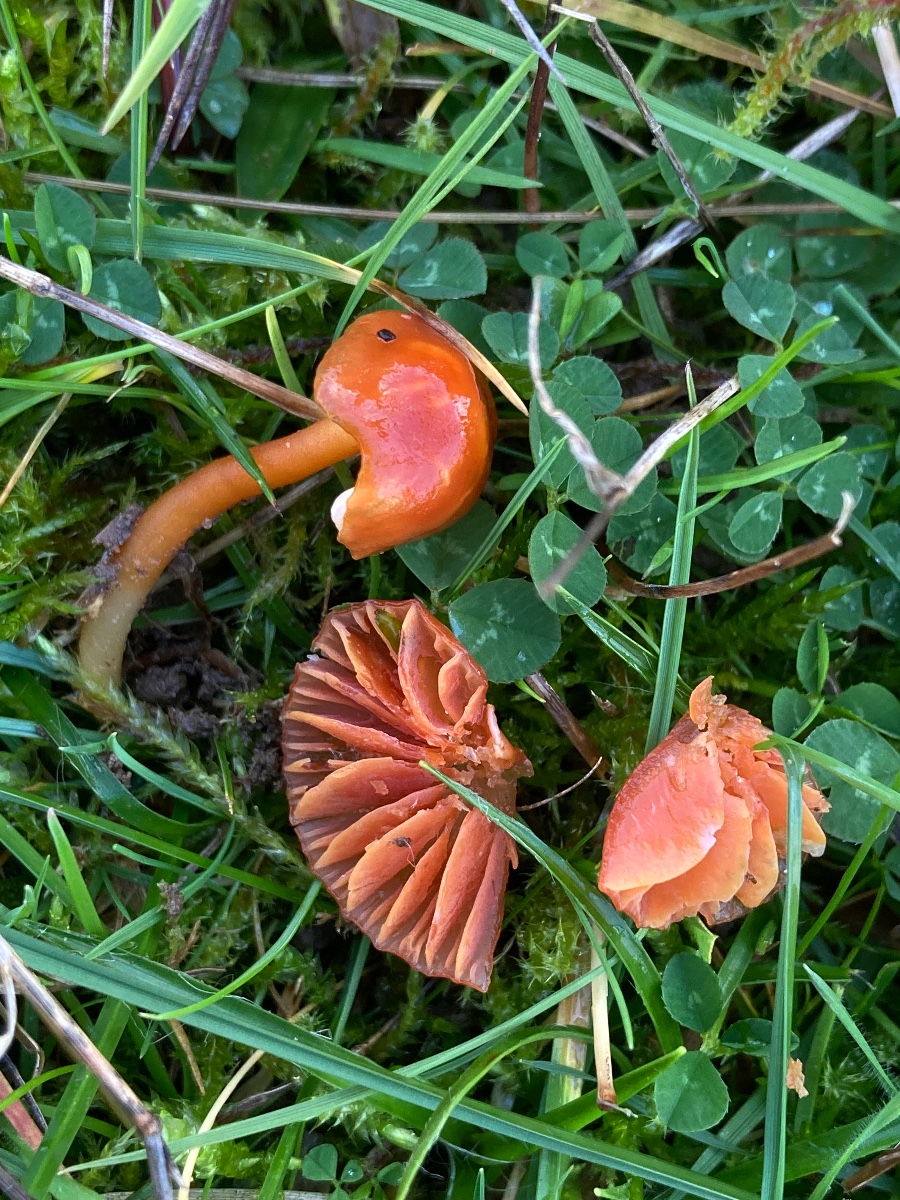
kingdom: Fungi
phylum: Basidiomycota
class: Agaricomycetes
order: Agaricales
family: Hygrophoraceae
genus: Gliophorus
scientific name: Gliophorus europerplexus
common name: Butterscotch waxcap
